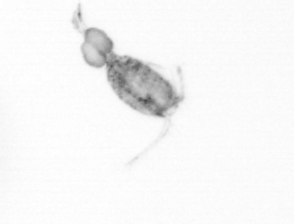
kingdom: Animalia
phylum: Arthropoda
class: Copepoda
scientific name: Copepoda
